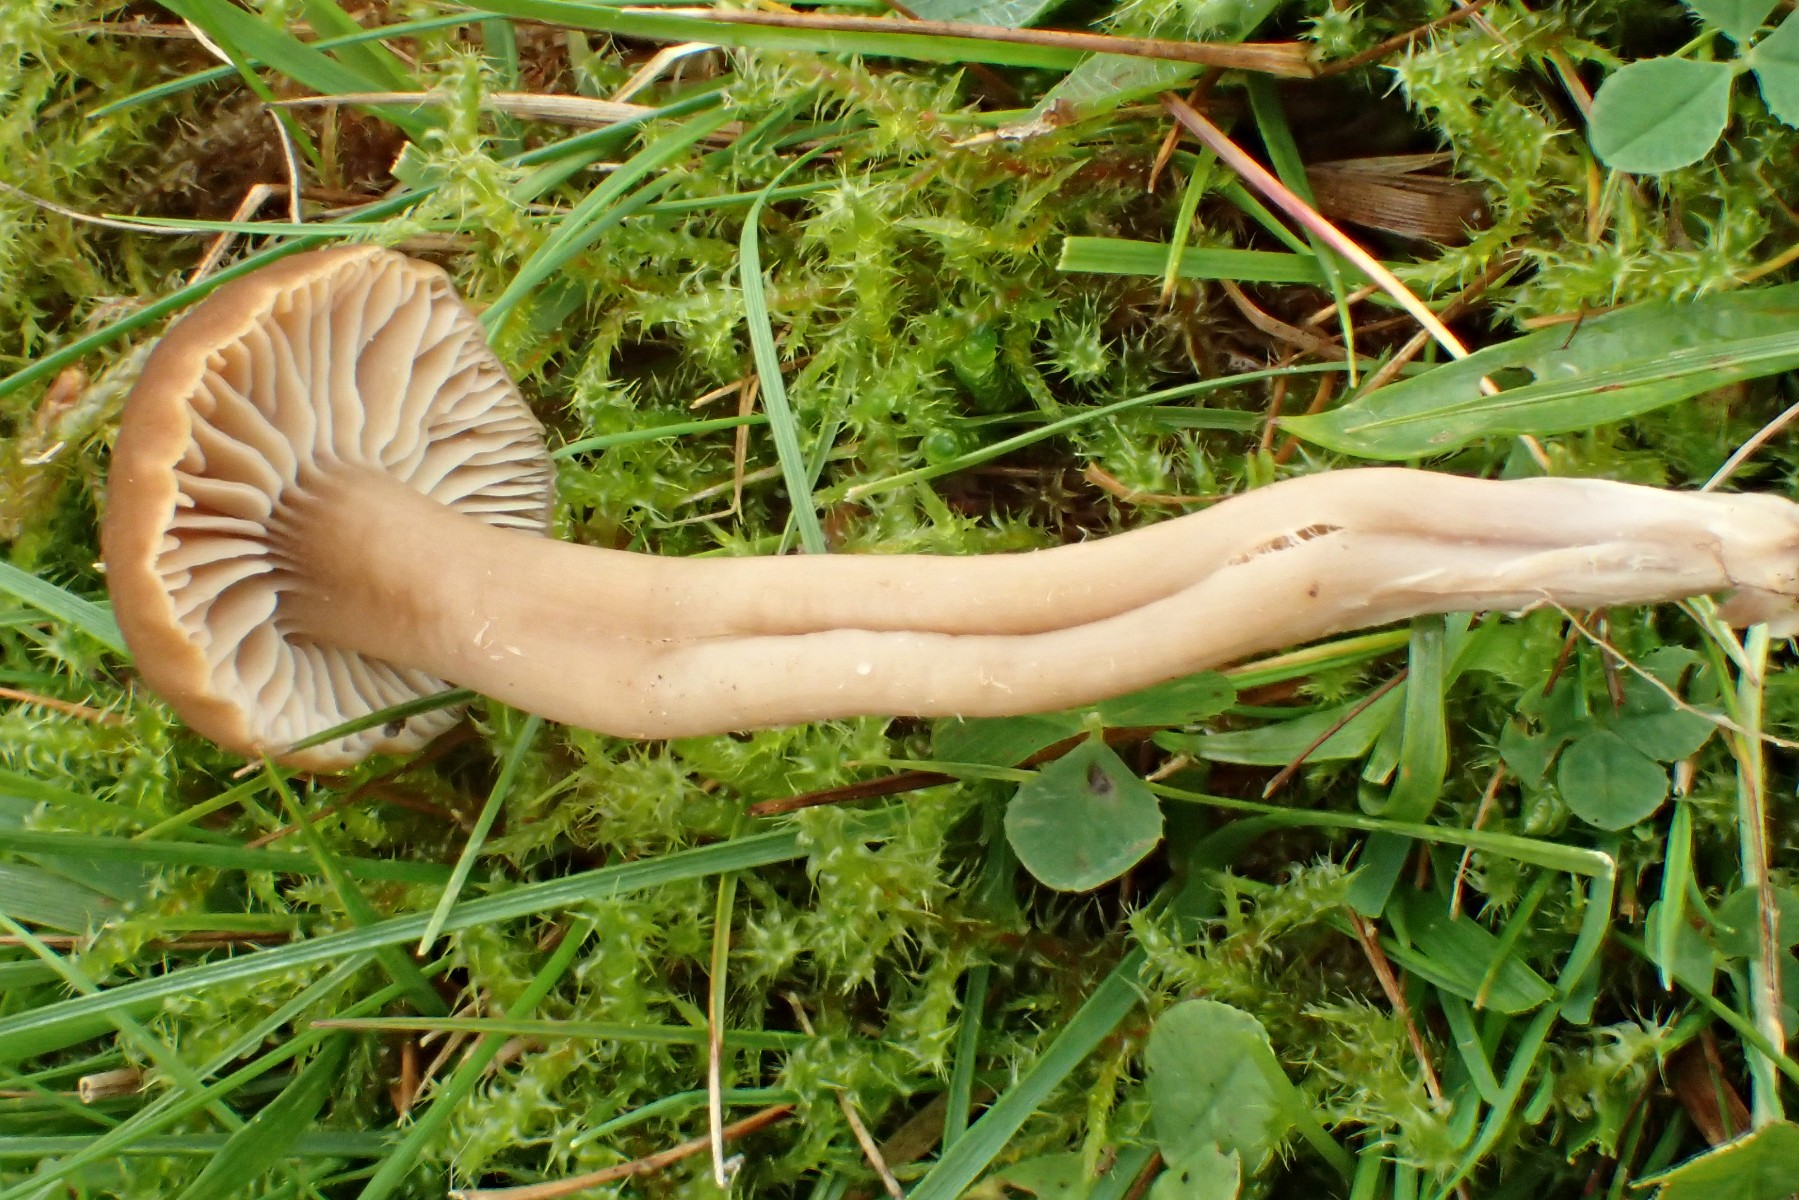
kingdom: Fungi
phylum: Basidiomycota
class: Agaricomycetes
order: Agaricales
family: Clavariaceae
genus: Camarophyllopsis
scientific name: Camarophyllopsis schulzeri
